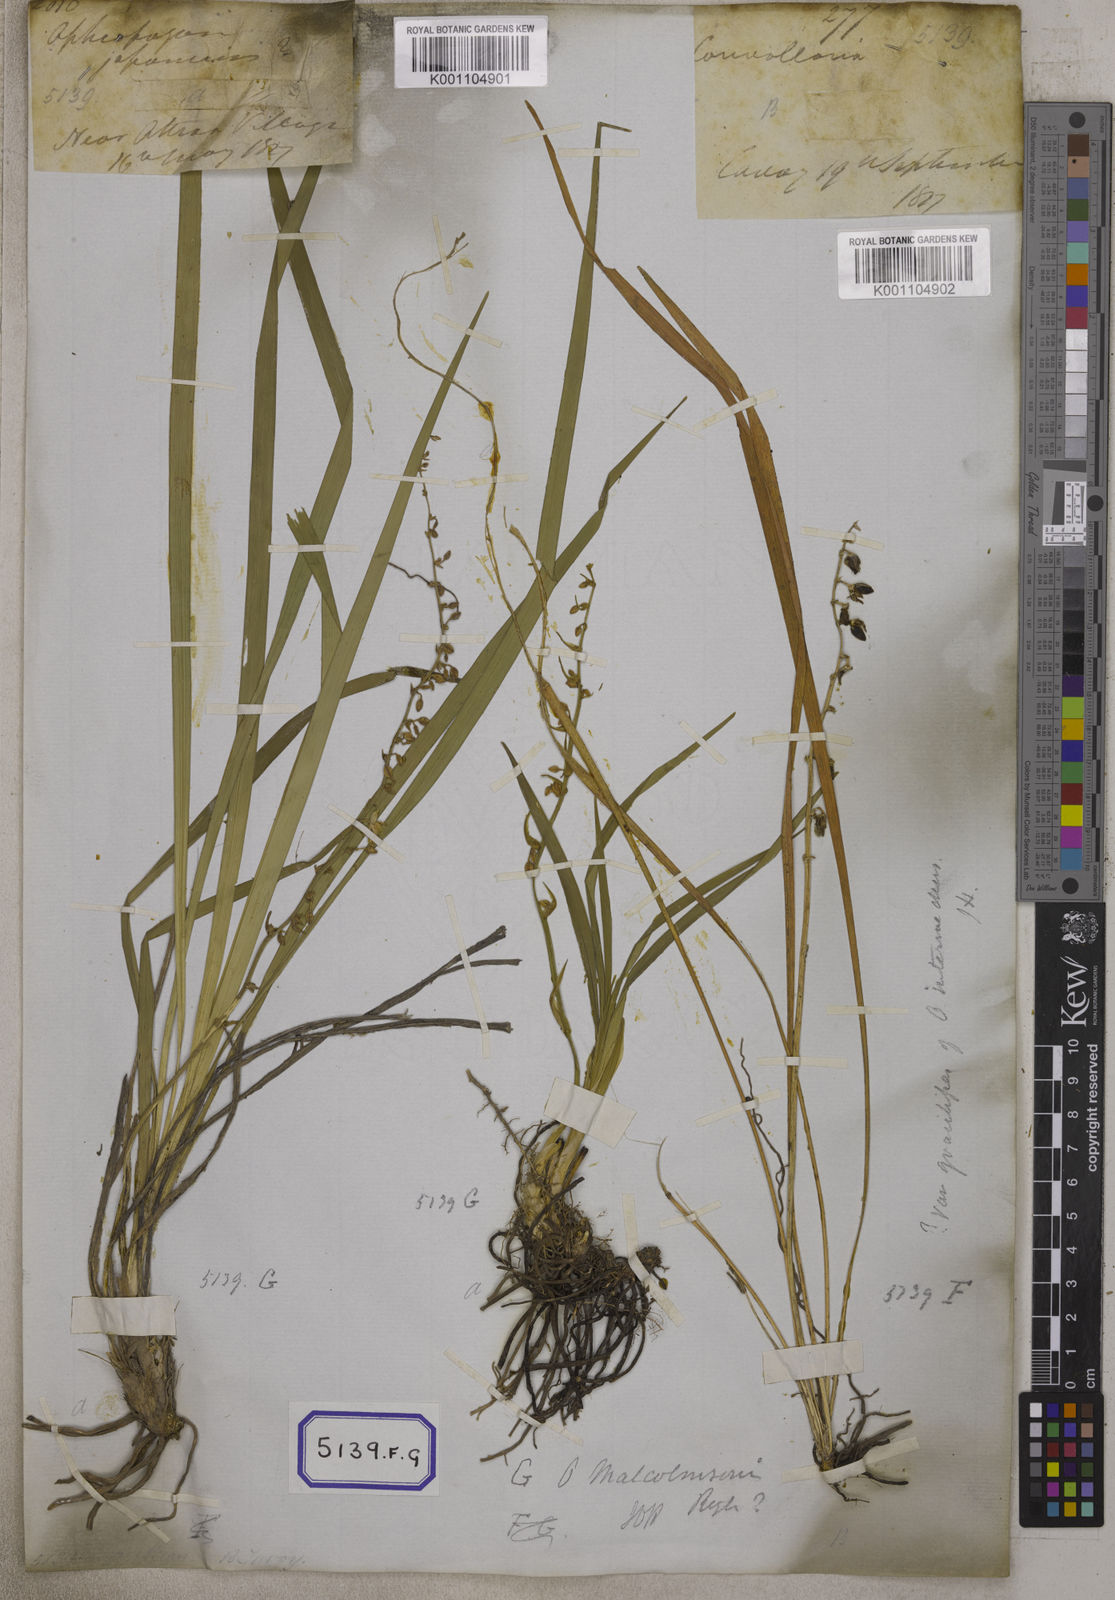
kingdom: Plantae
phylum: Tracheophyta
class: Liliopsida
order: Asparagales
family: Asparagaceae
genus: Ophiopogon
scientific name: Ophiopogon
